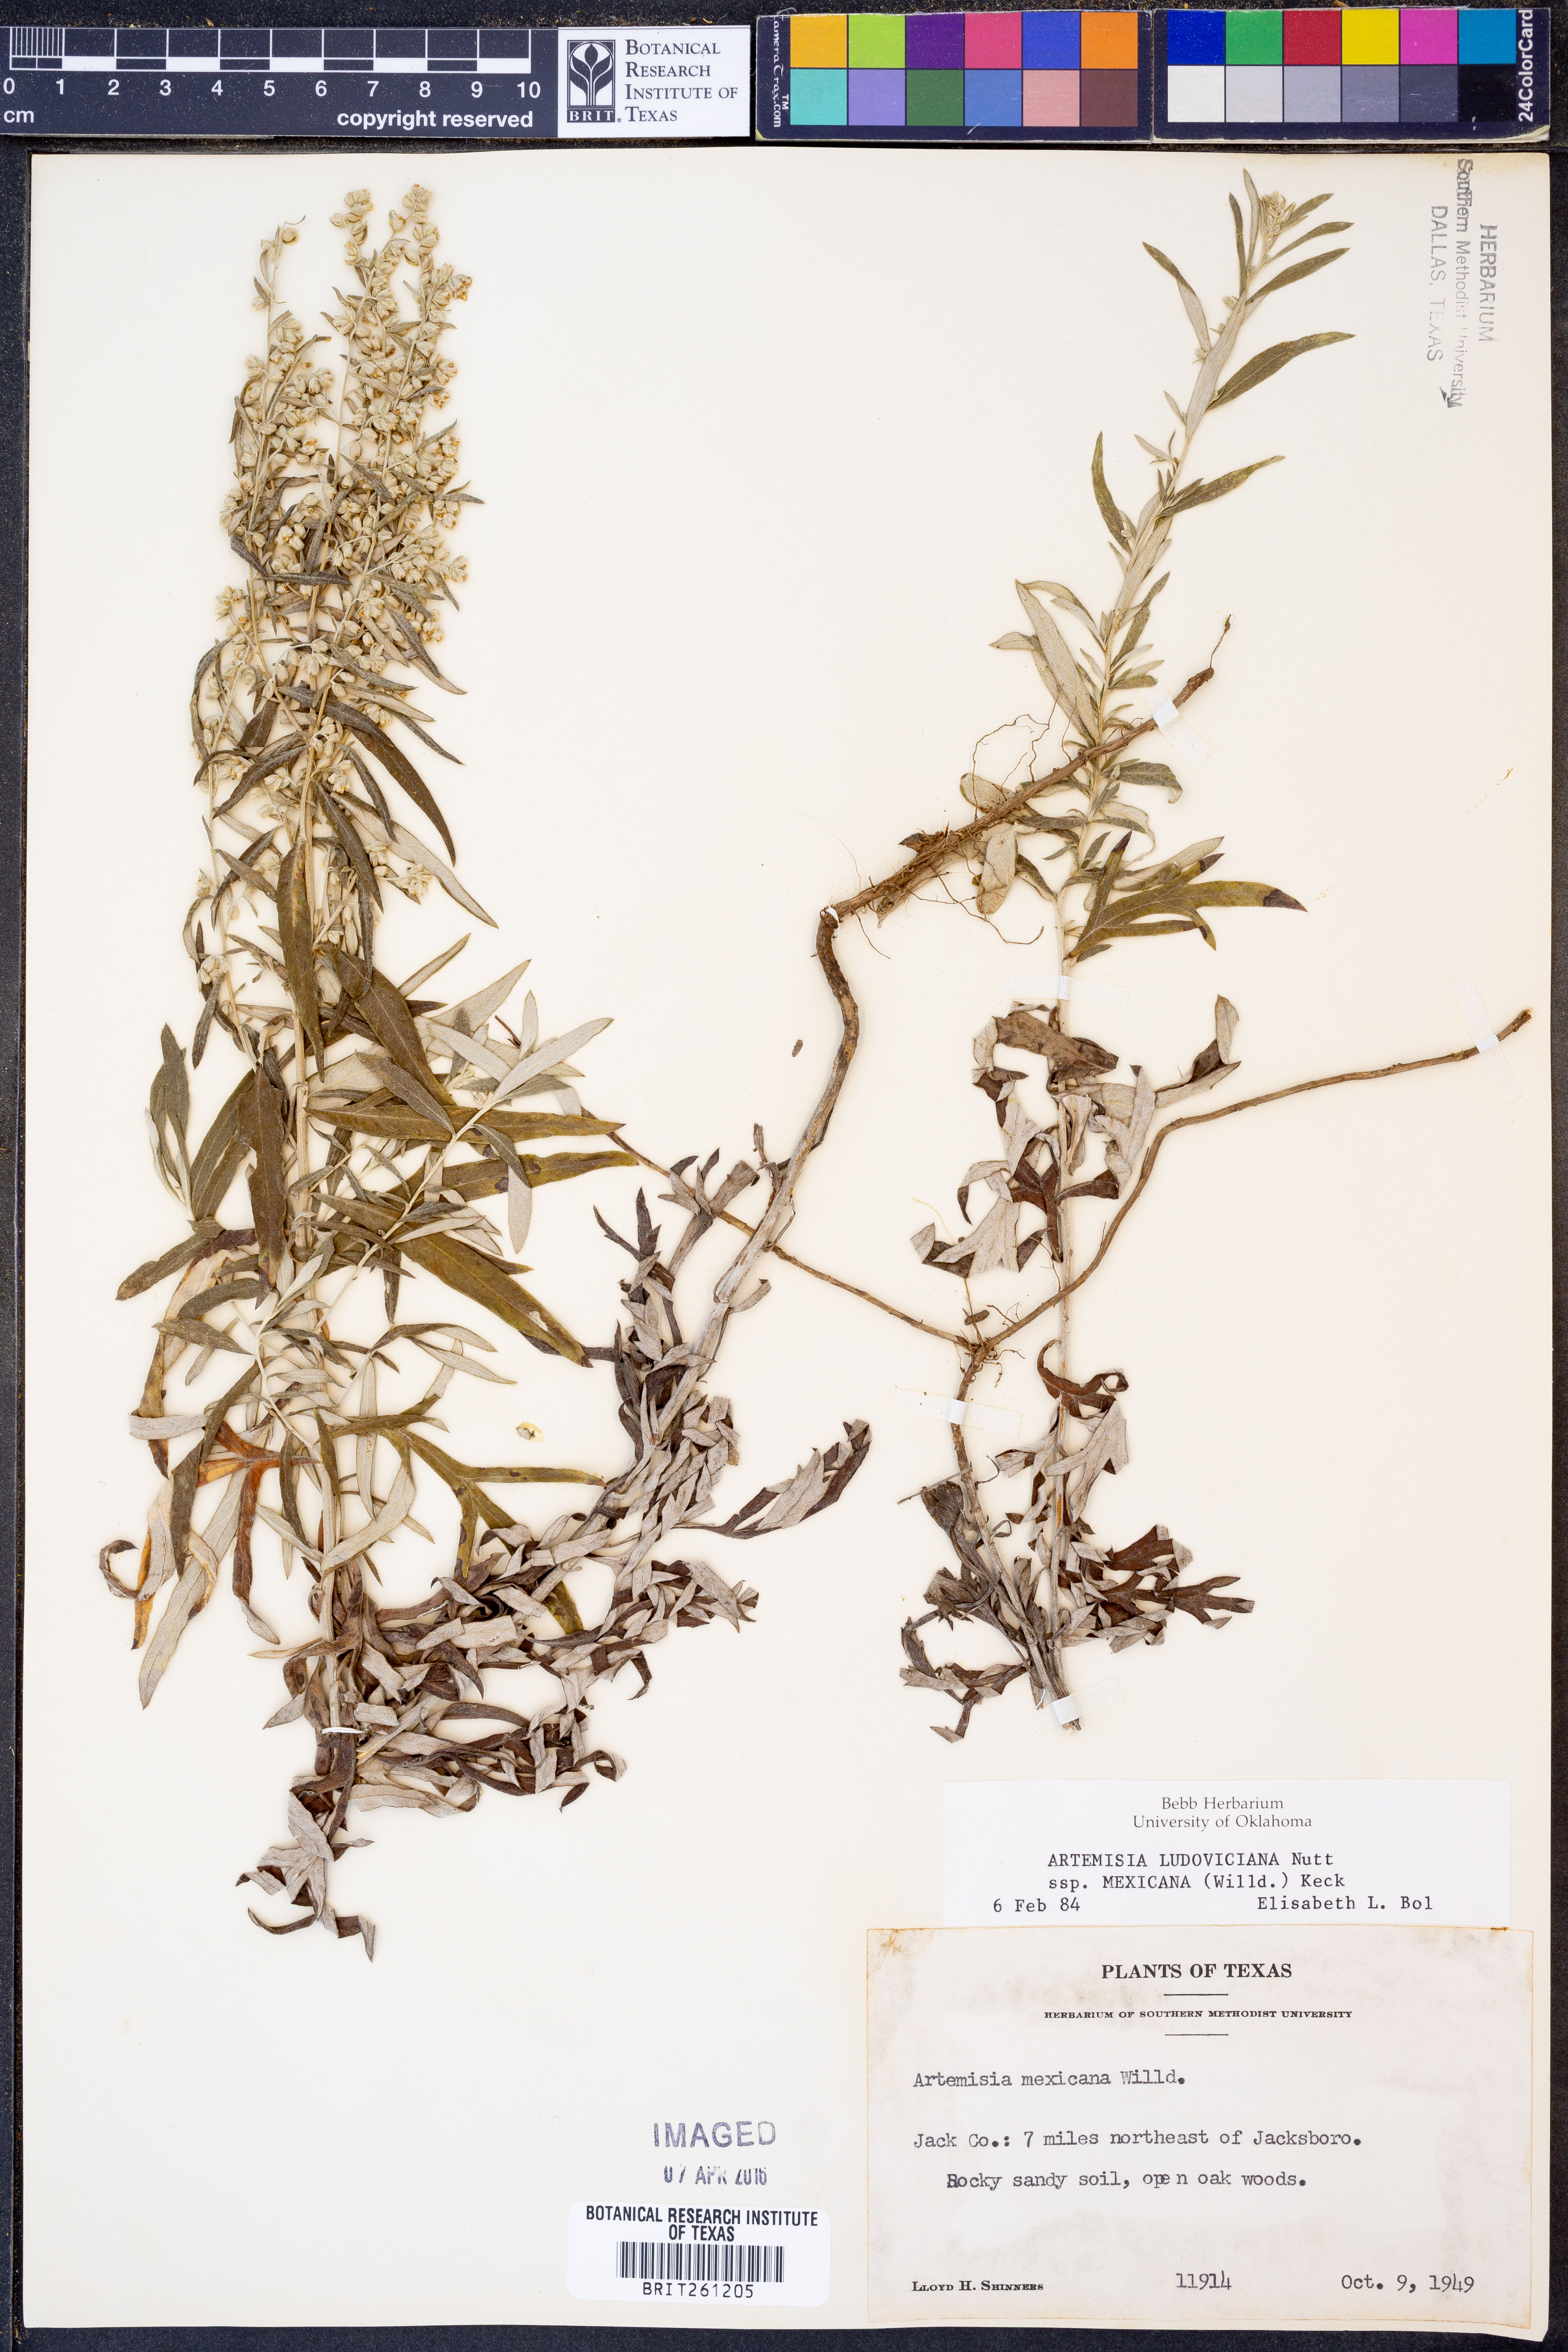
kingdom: Plantae
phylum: Tracheophyta
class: Magnoliopsida
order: Asterales
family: Asteraceae
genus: Artemisia
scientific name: Artemisia ludoviciana
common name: Western mugwort
